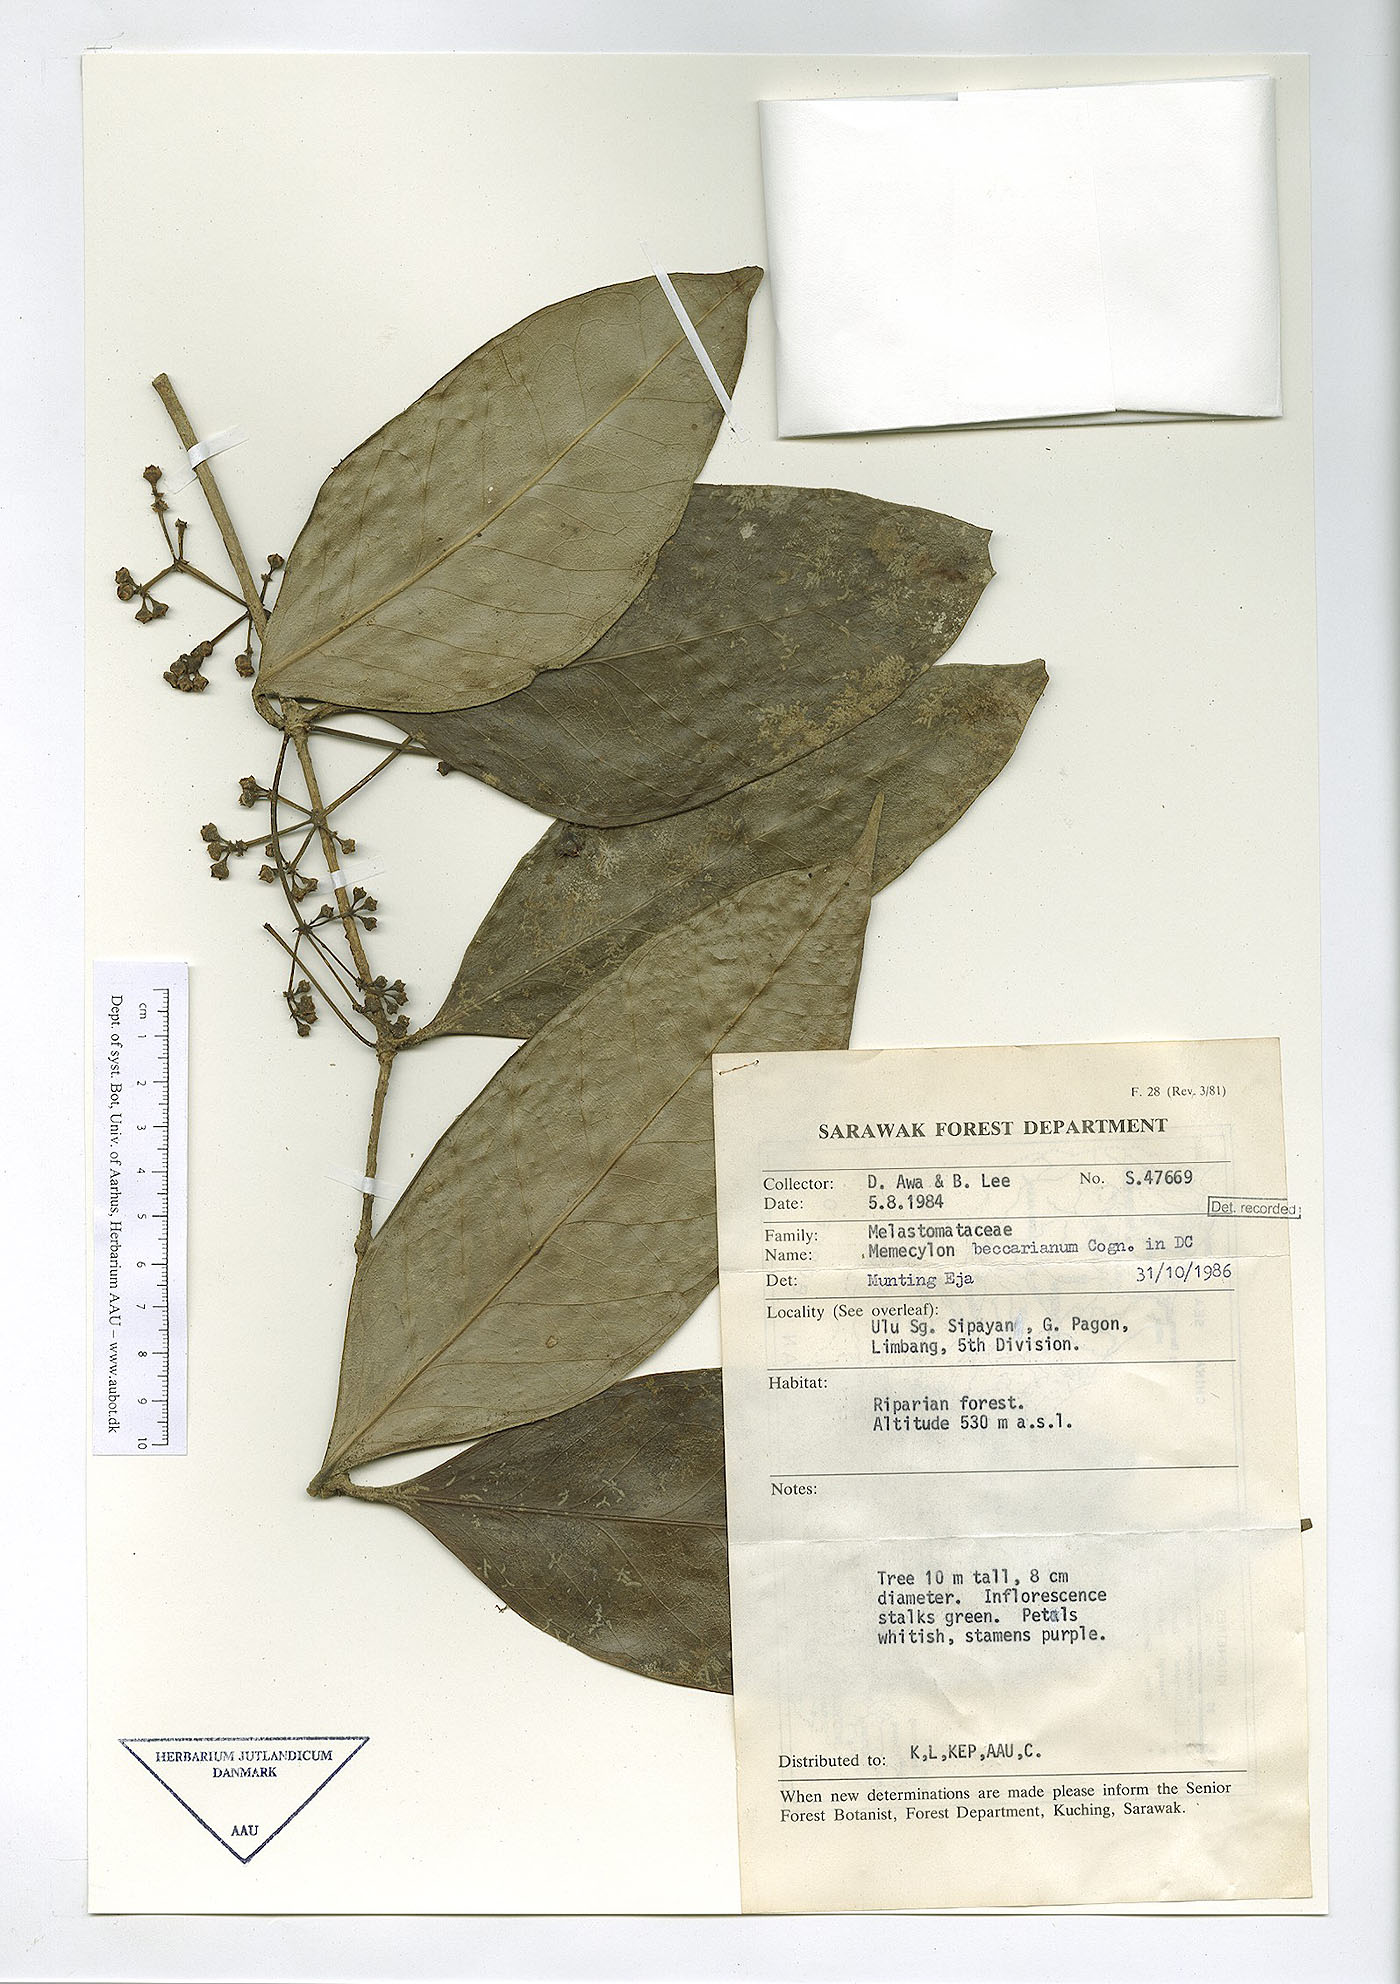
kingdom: Plantae
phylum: Tracheophyta
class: Magnoliopsida
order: Myrtales
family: Melastomataceae
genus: Memecylon
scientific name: Memecylon beccarianum
